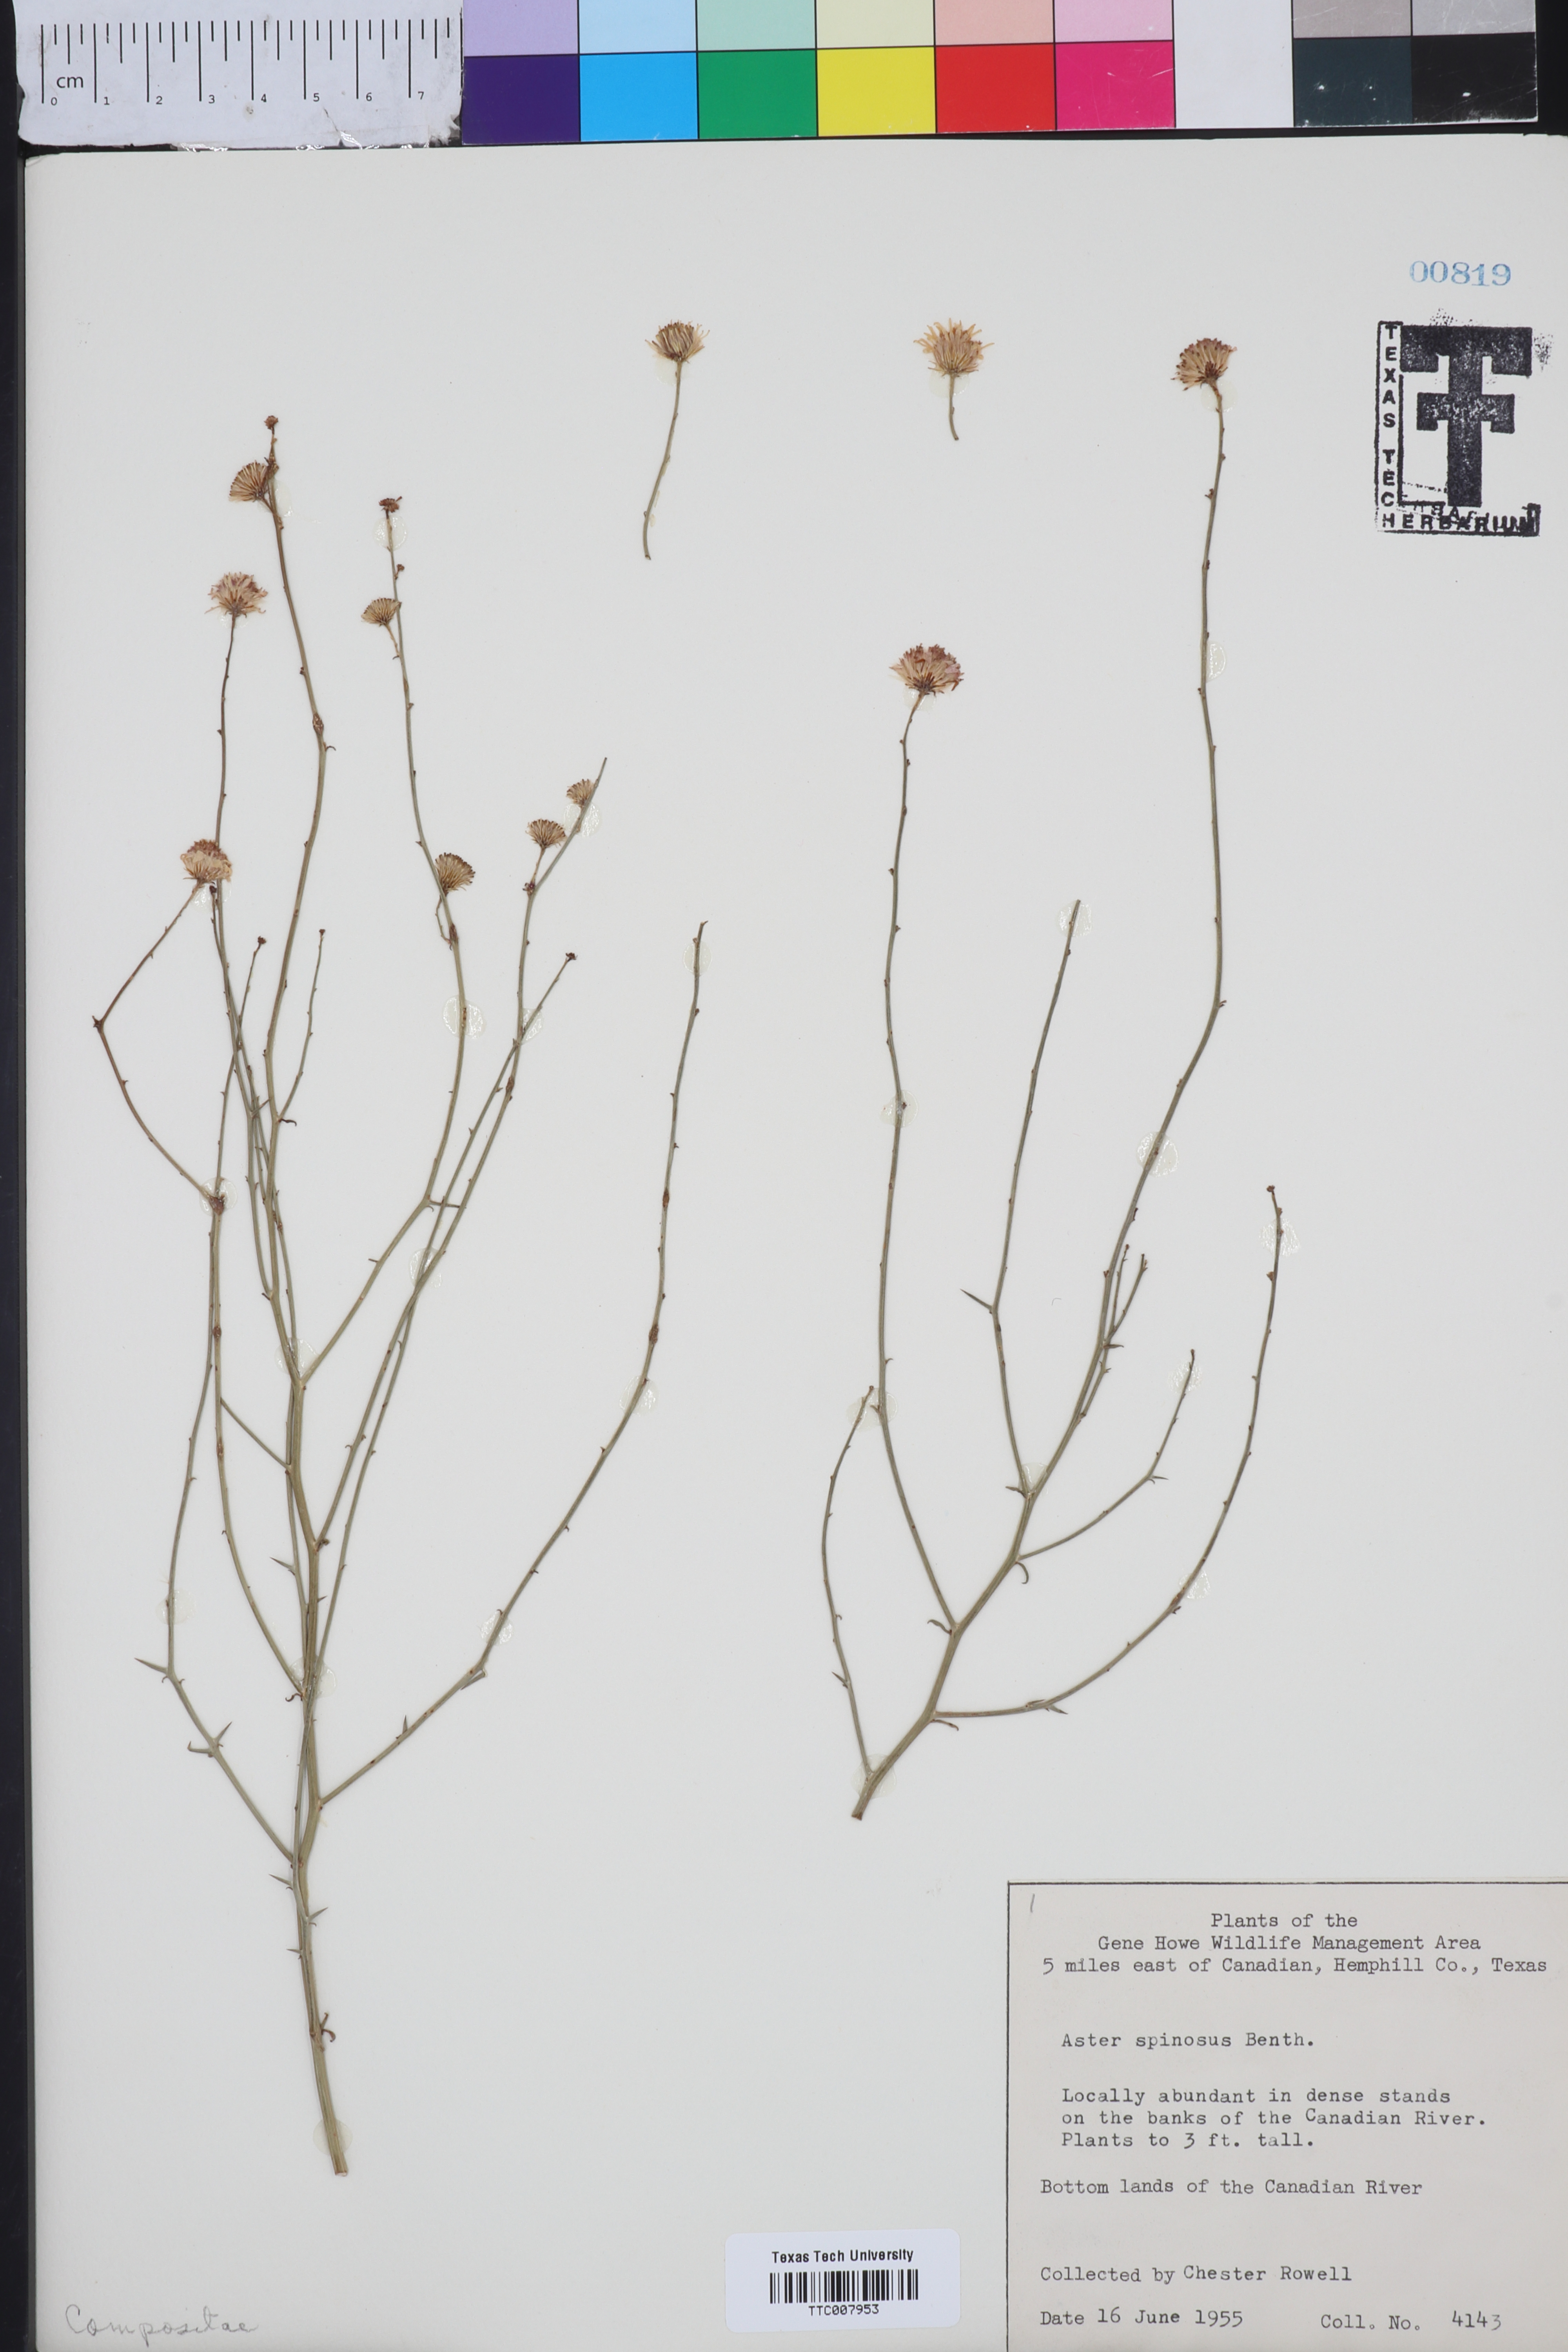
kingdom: Plantae
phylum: Tracheophyta
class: Magnoliopsida
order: Asterales
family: Asteraceae
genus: Chloracantha
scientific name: Chloracantha spinosa
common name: Mexican devilweed
